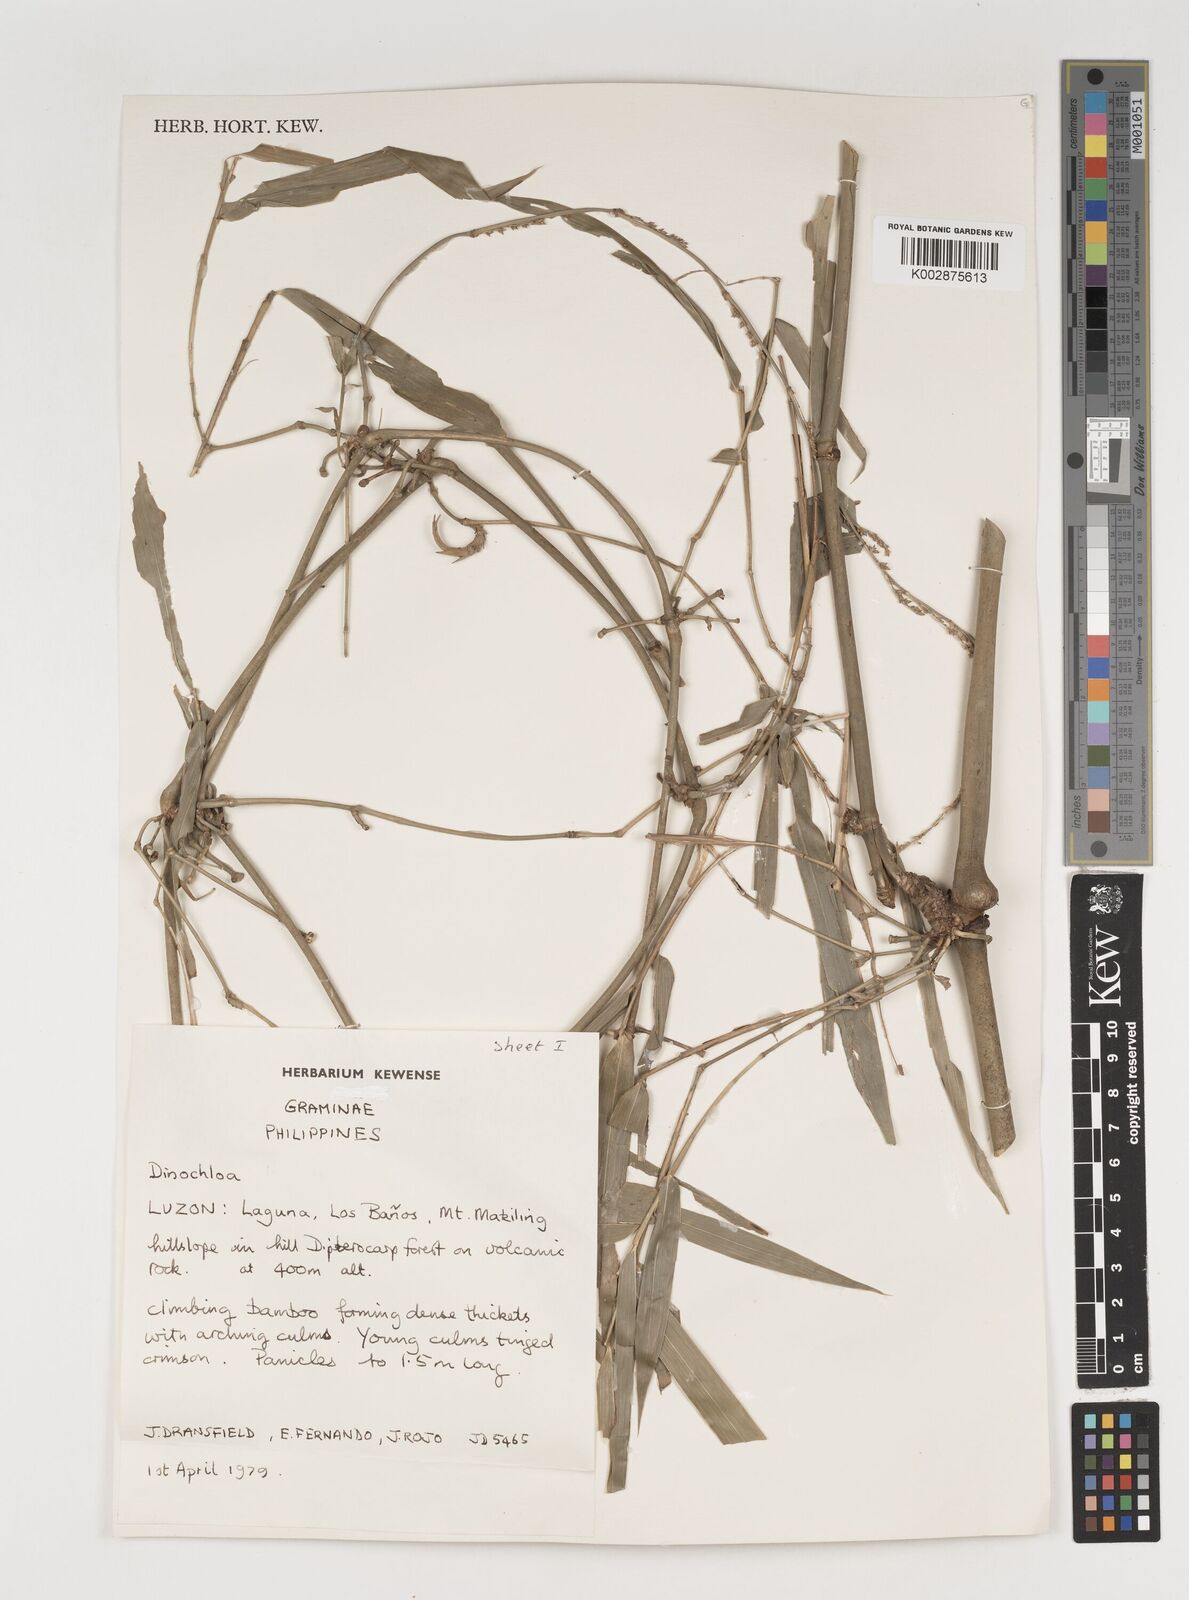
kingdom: Plantae
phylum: Tracheophyta
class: Liliopsida
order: Poales
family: Poaceae
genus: Dinochloa
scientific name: Dinochloa
